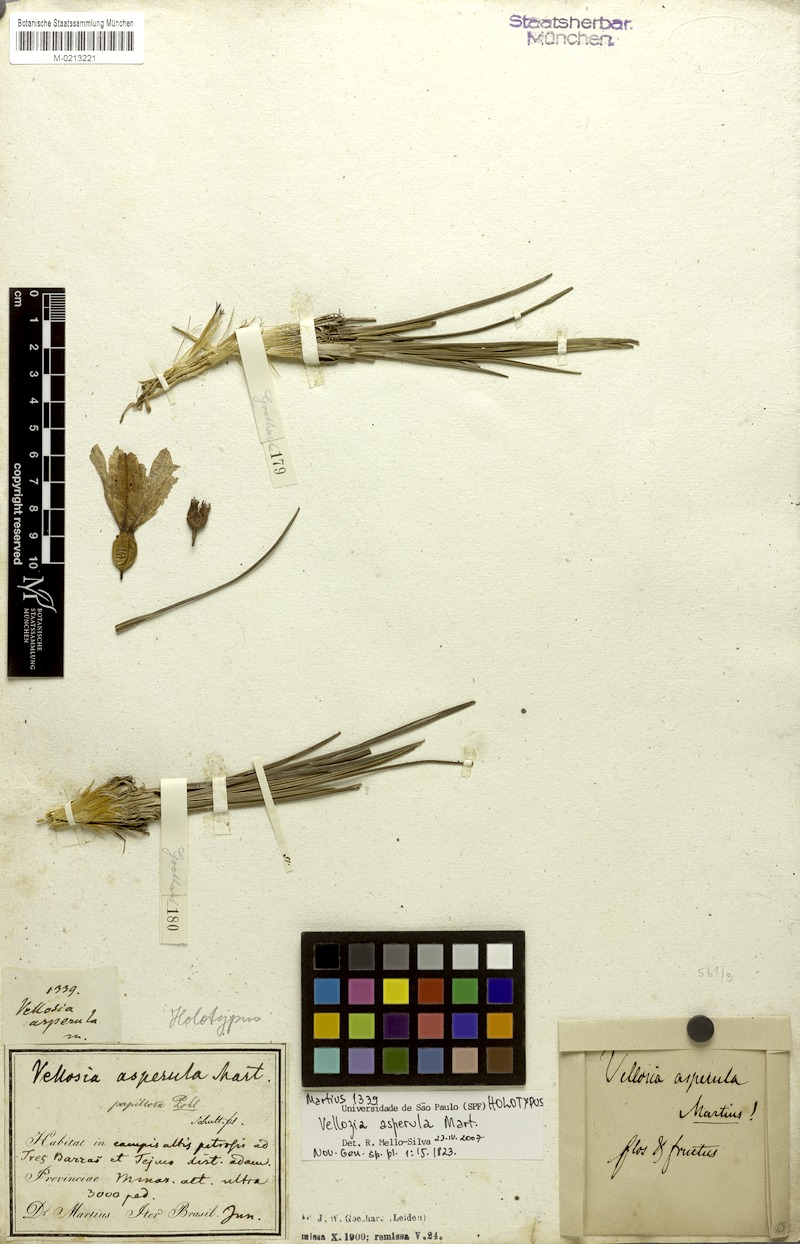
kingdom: Plantae
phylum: Tracheophyta
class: Liliopsida
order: Pandanales
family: Velloziaceae
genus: Vellozia
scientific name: Vellozia asperula
